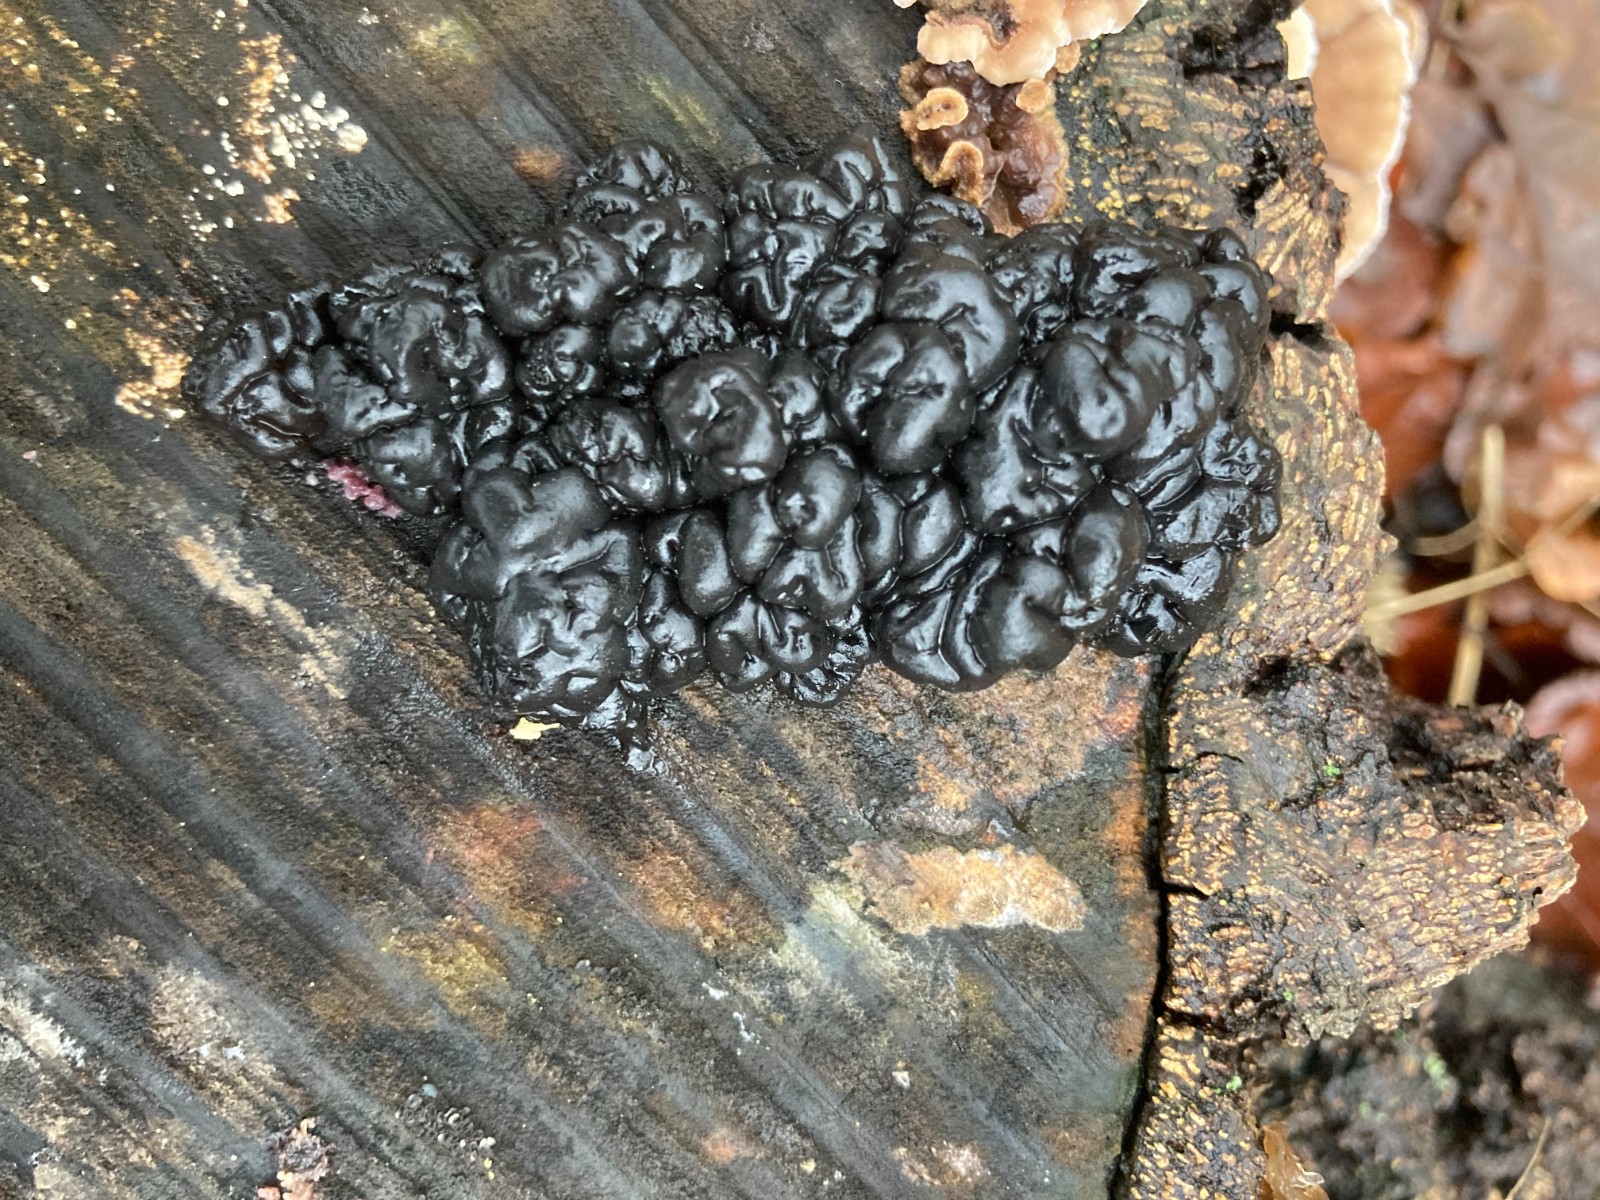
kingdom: Fungi
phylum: Basidiomycota
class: Agaricomycetes
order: Auriculariales
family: Auriculariaceae
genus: Exidia
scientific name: Exidia nigricans
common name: almindelig bævretop
